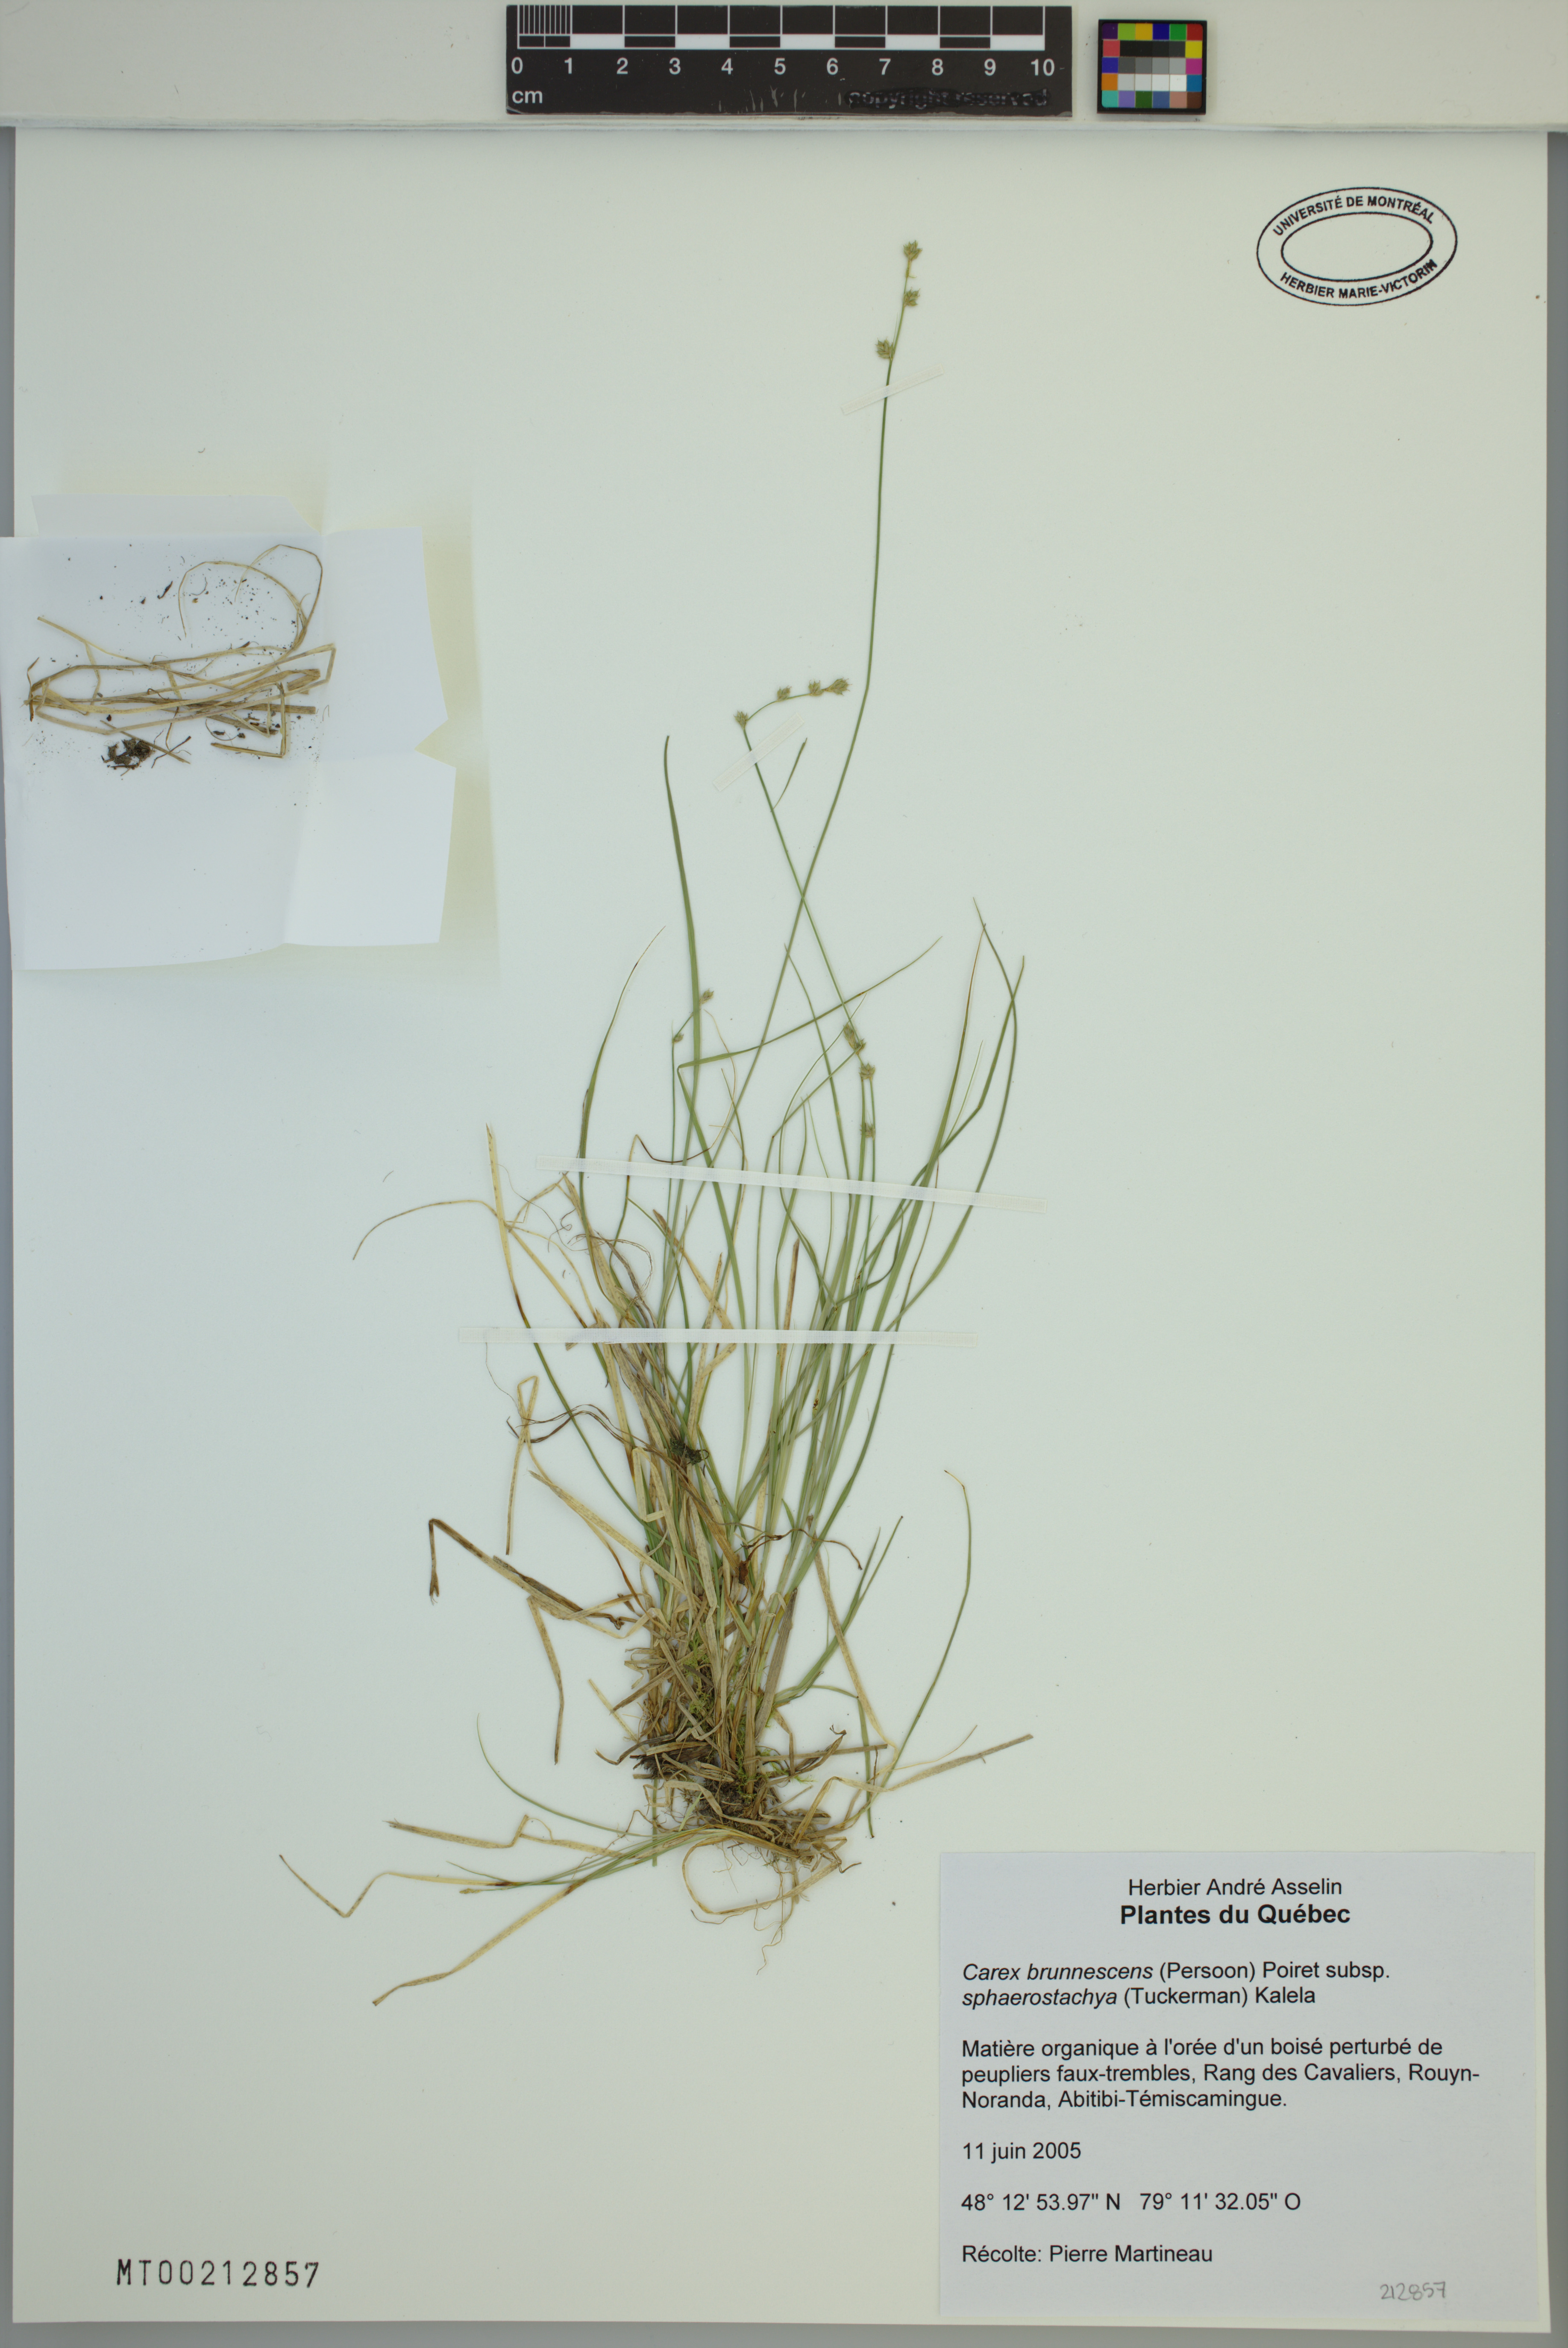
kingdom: Plantae
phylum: Tracheophyta
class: Liliopsida
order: Poales
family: Cyperaceae
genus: Carex
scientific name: Carex brunnescens
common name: Brown sedge
